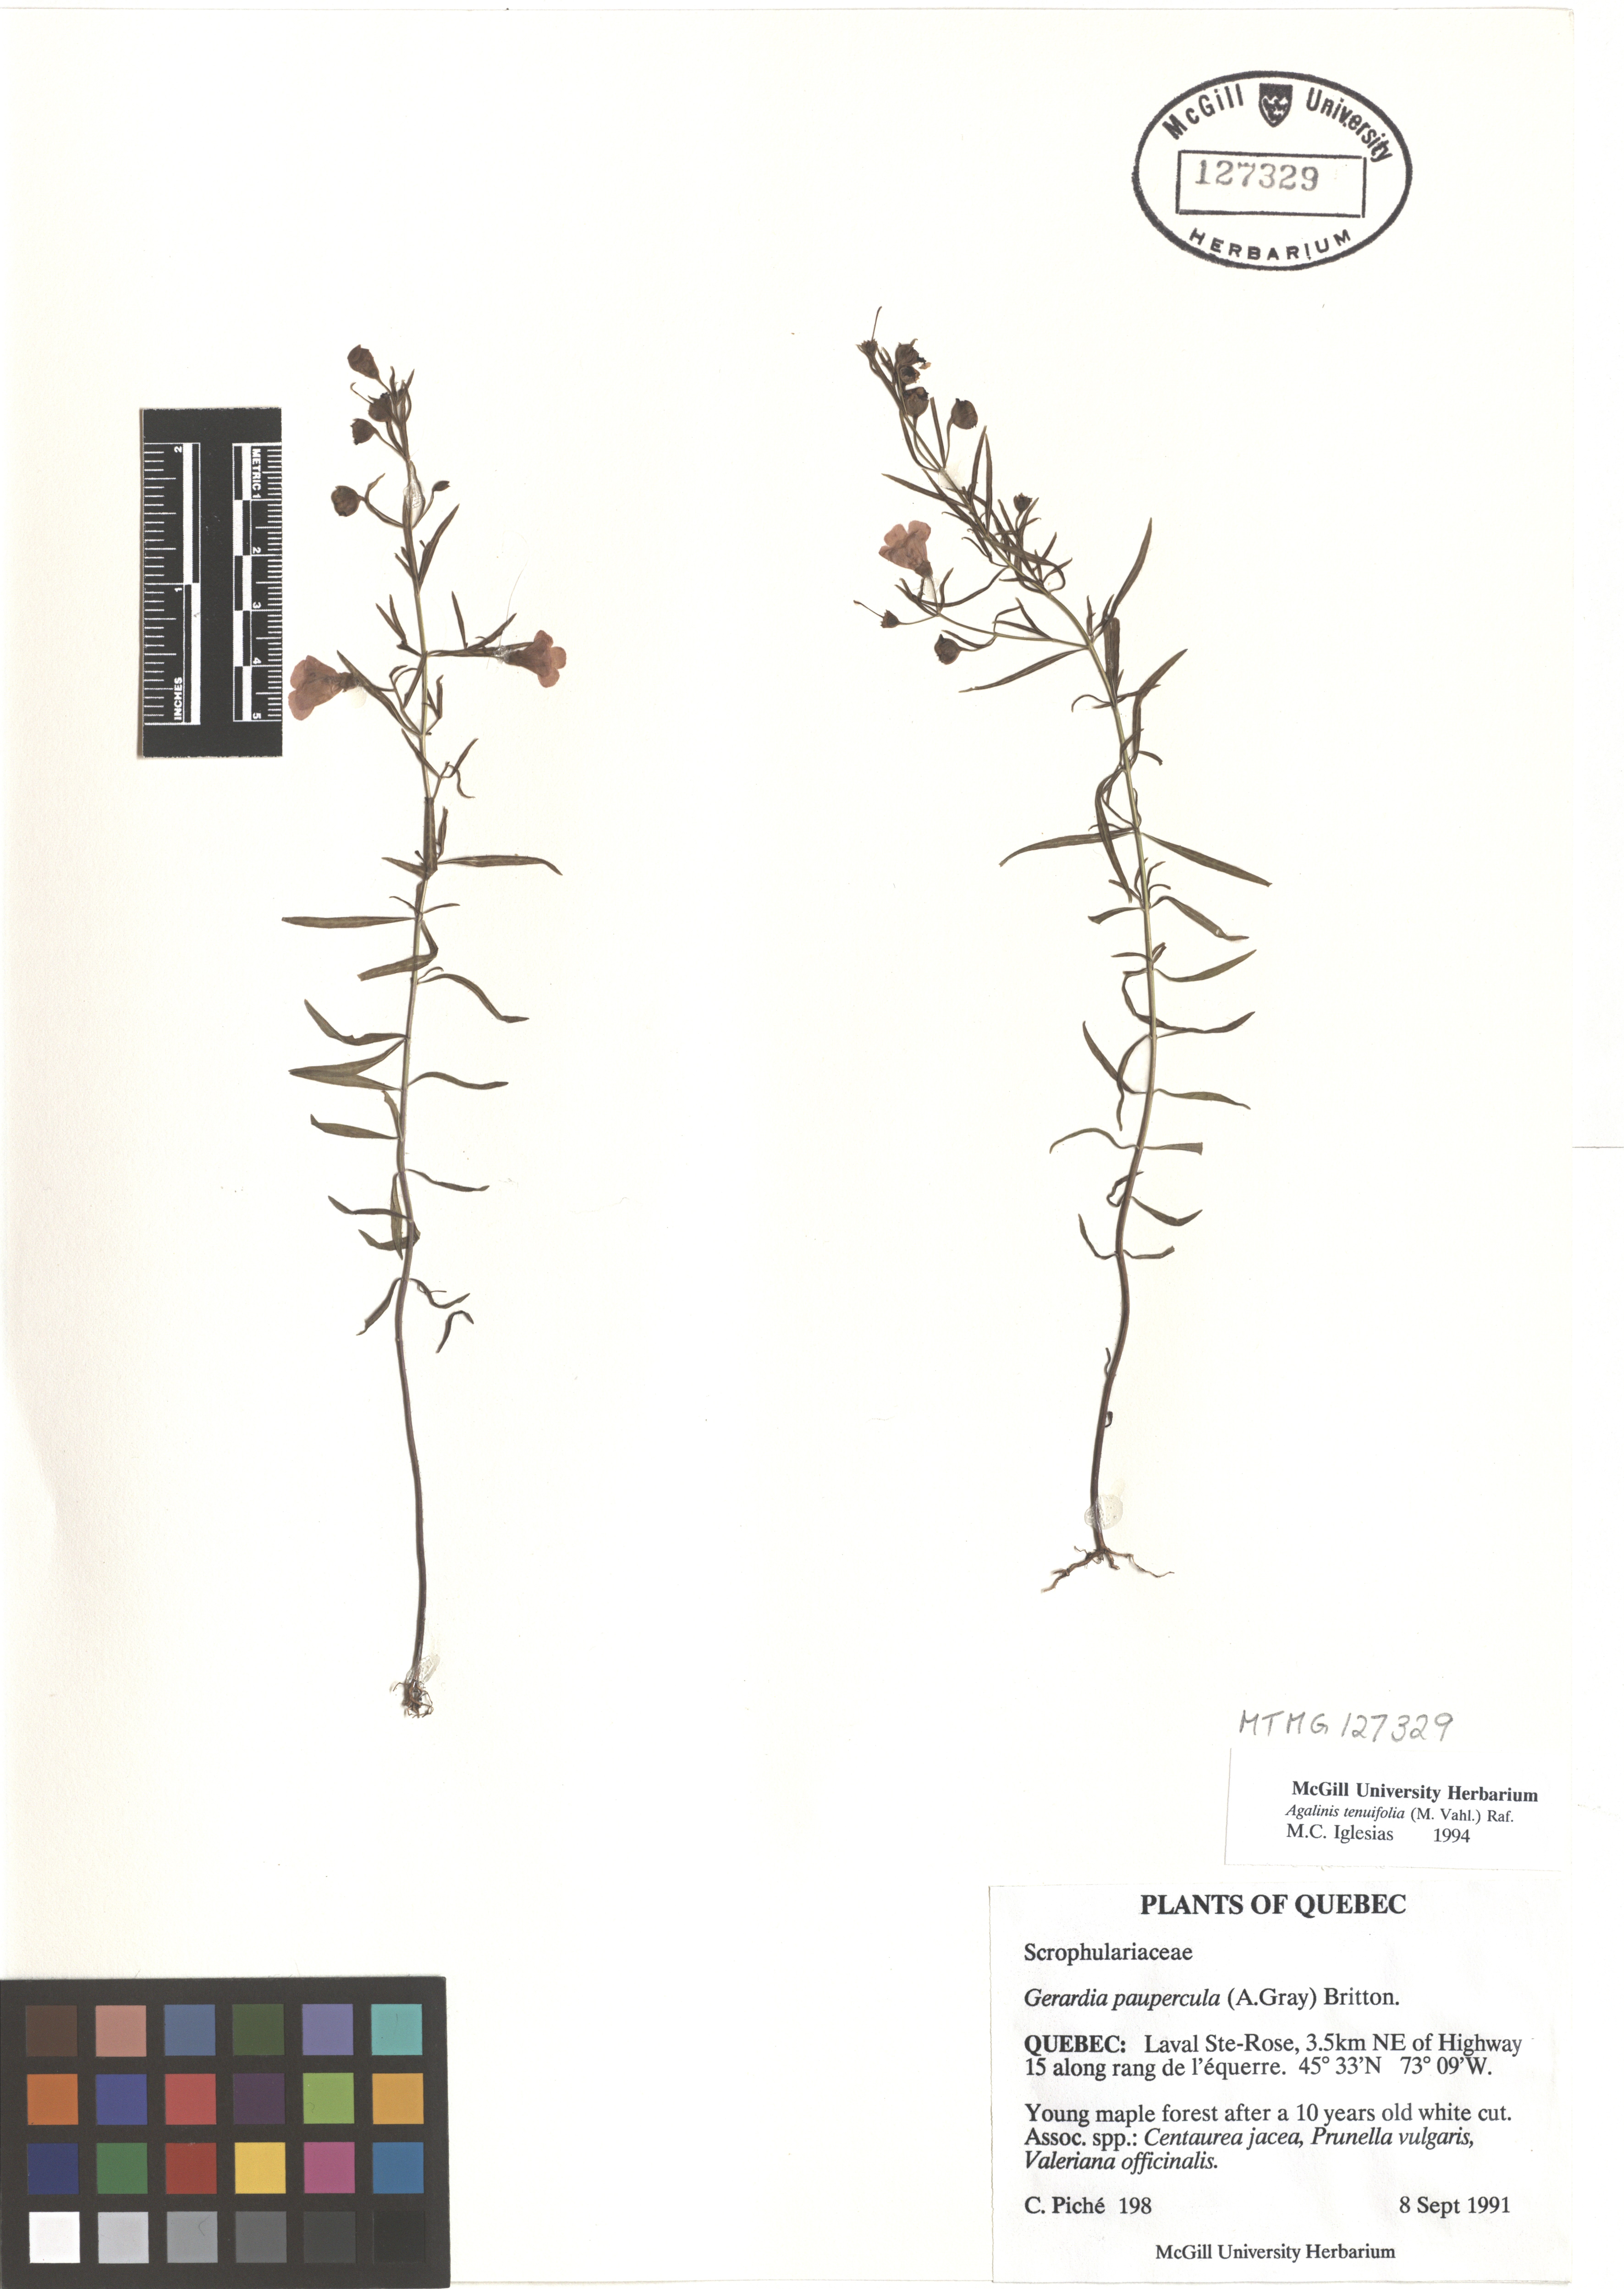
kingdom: Plantae
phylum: Tracheophyta
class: Magnoliopsida
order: Lamiales
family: Orobanchaceae
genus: Agalinis
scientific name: Agalinis tenuifolia
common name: Slender agalinis
